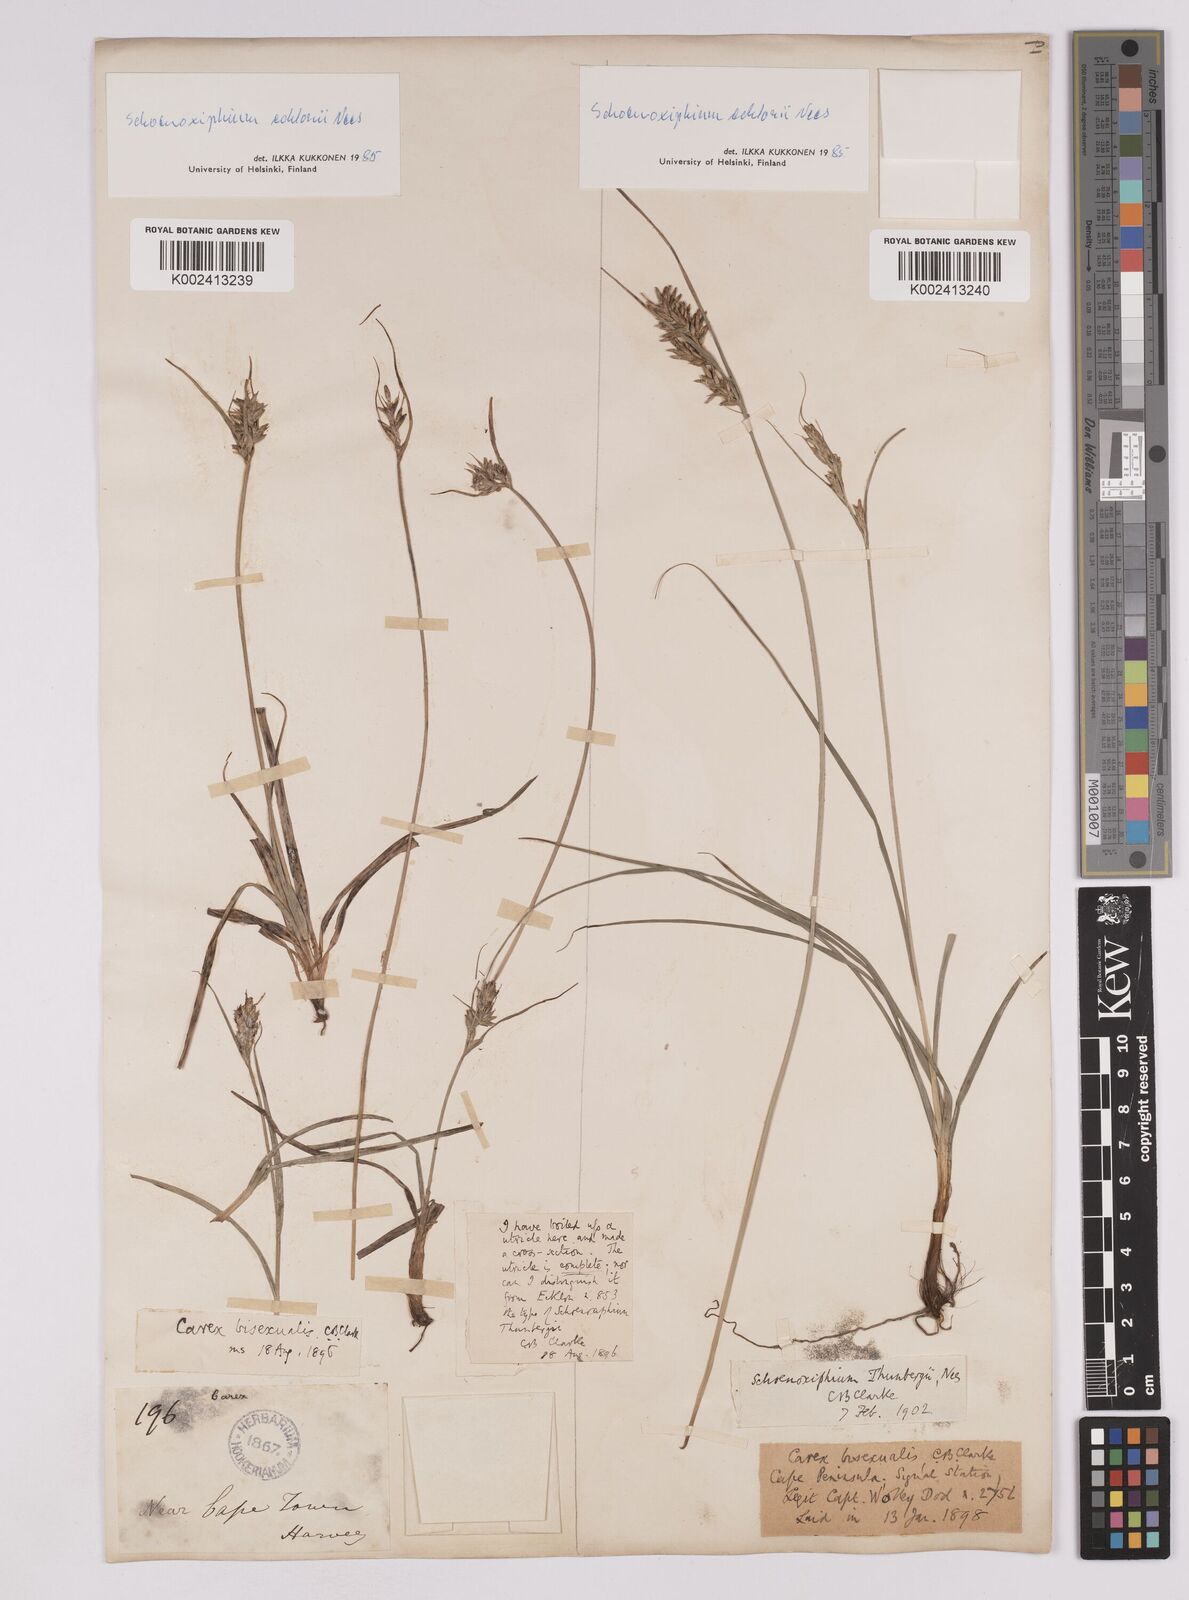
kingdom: Plantae
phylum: Tracheophyta
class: Liliopsida
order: Poales
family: Cyperaceae
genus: Carex
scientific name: Carex capensis
